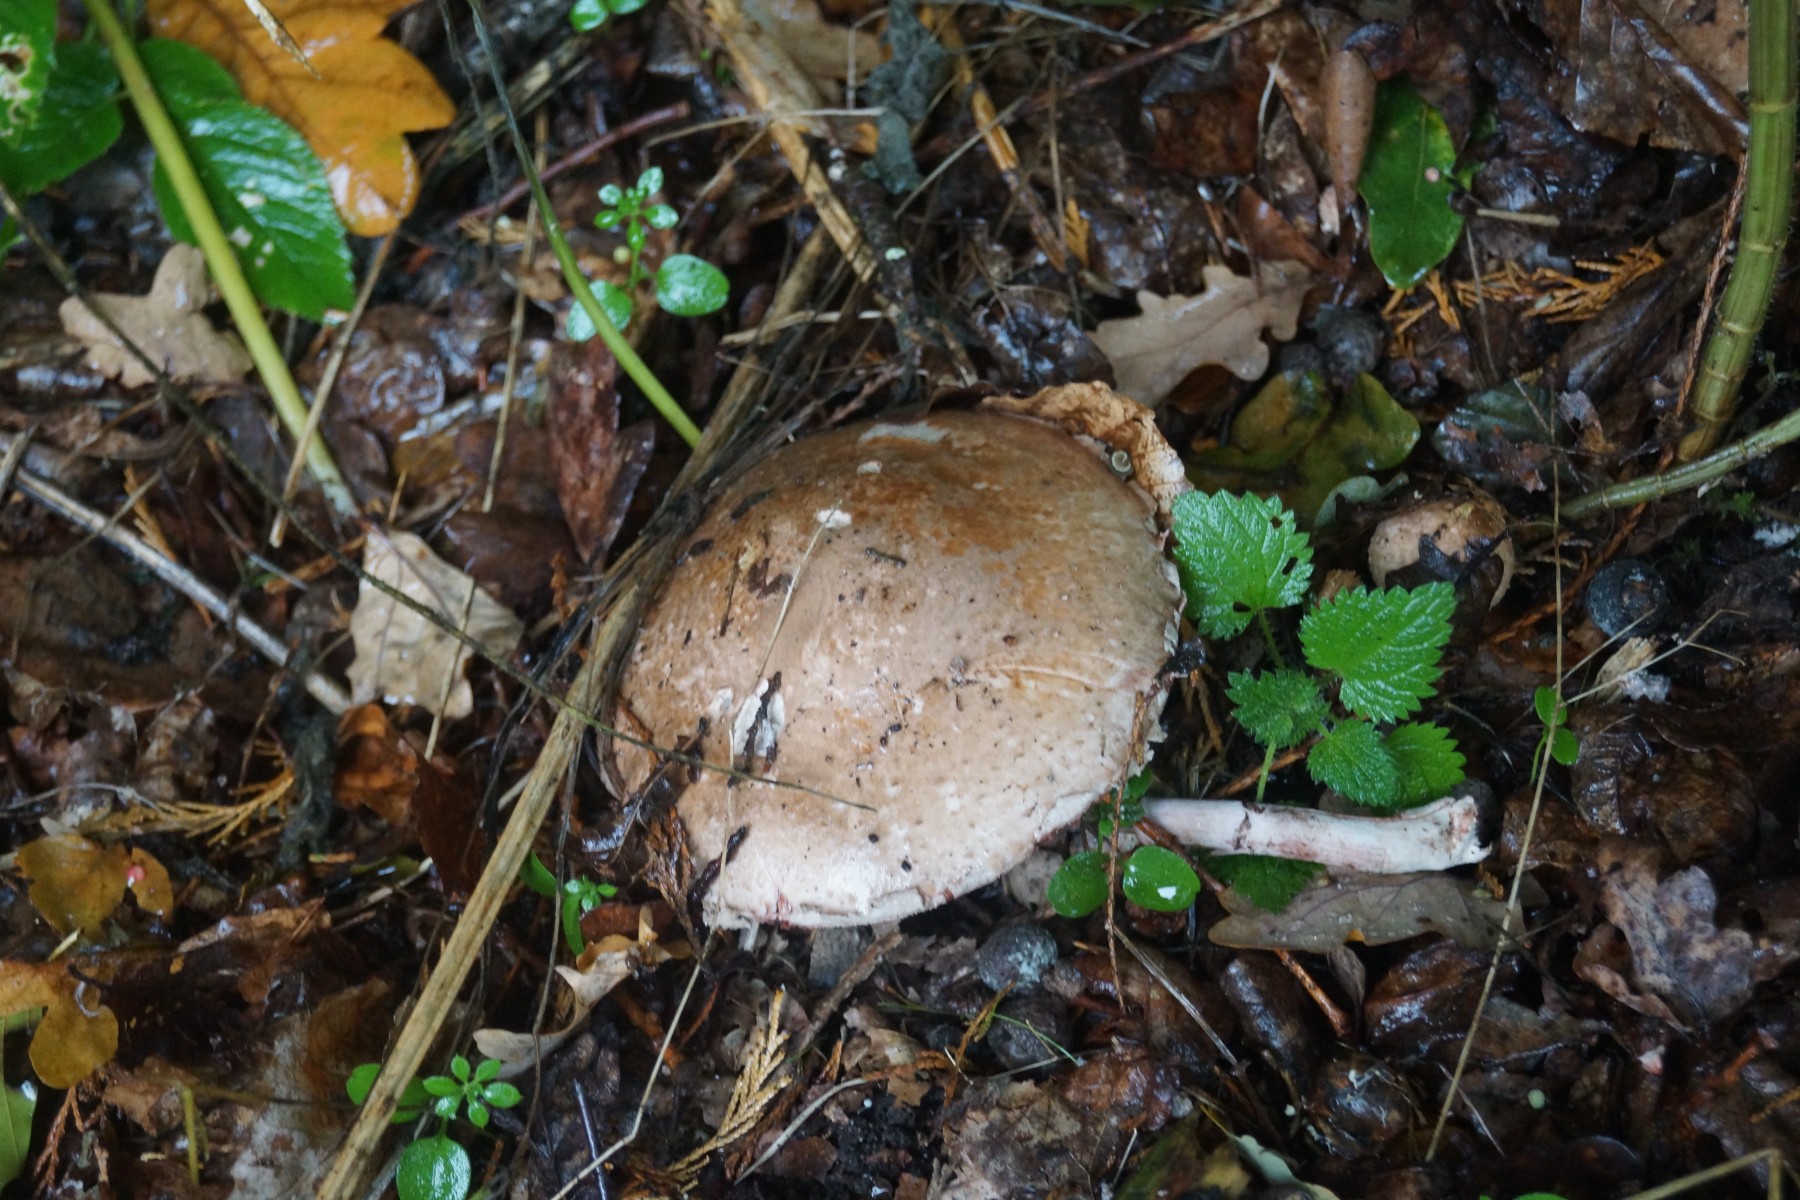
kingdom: Fungi
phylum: Basidiomycota
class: Agaricomycetes
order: Agaricales
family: Agaricaceae
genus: Agaricus
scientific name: Agaricus subperonatus
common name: knippe-champignon
